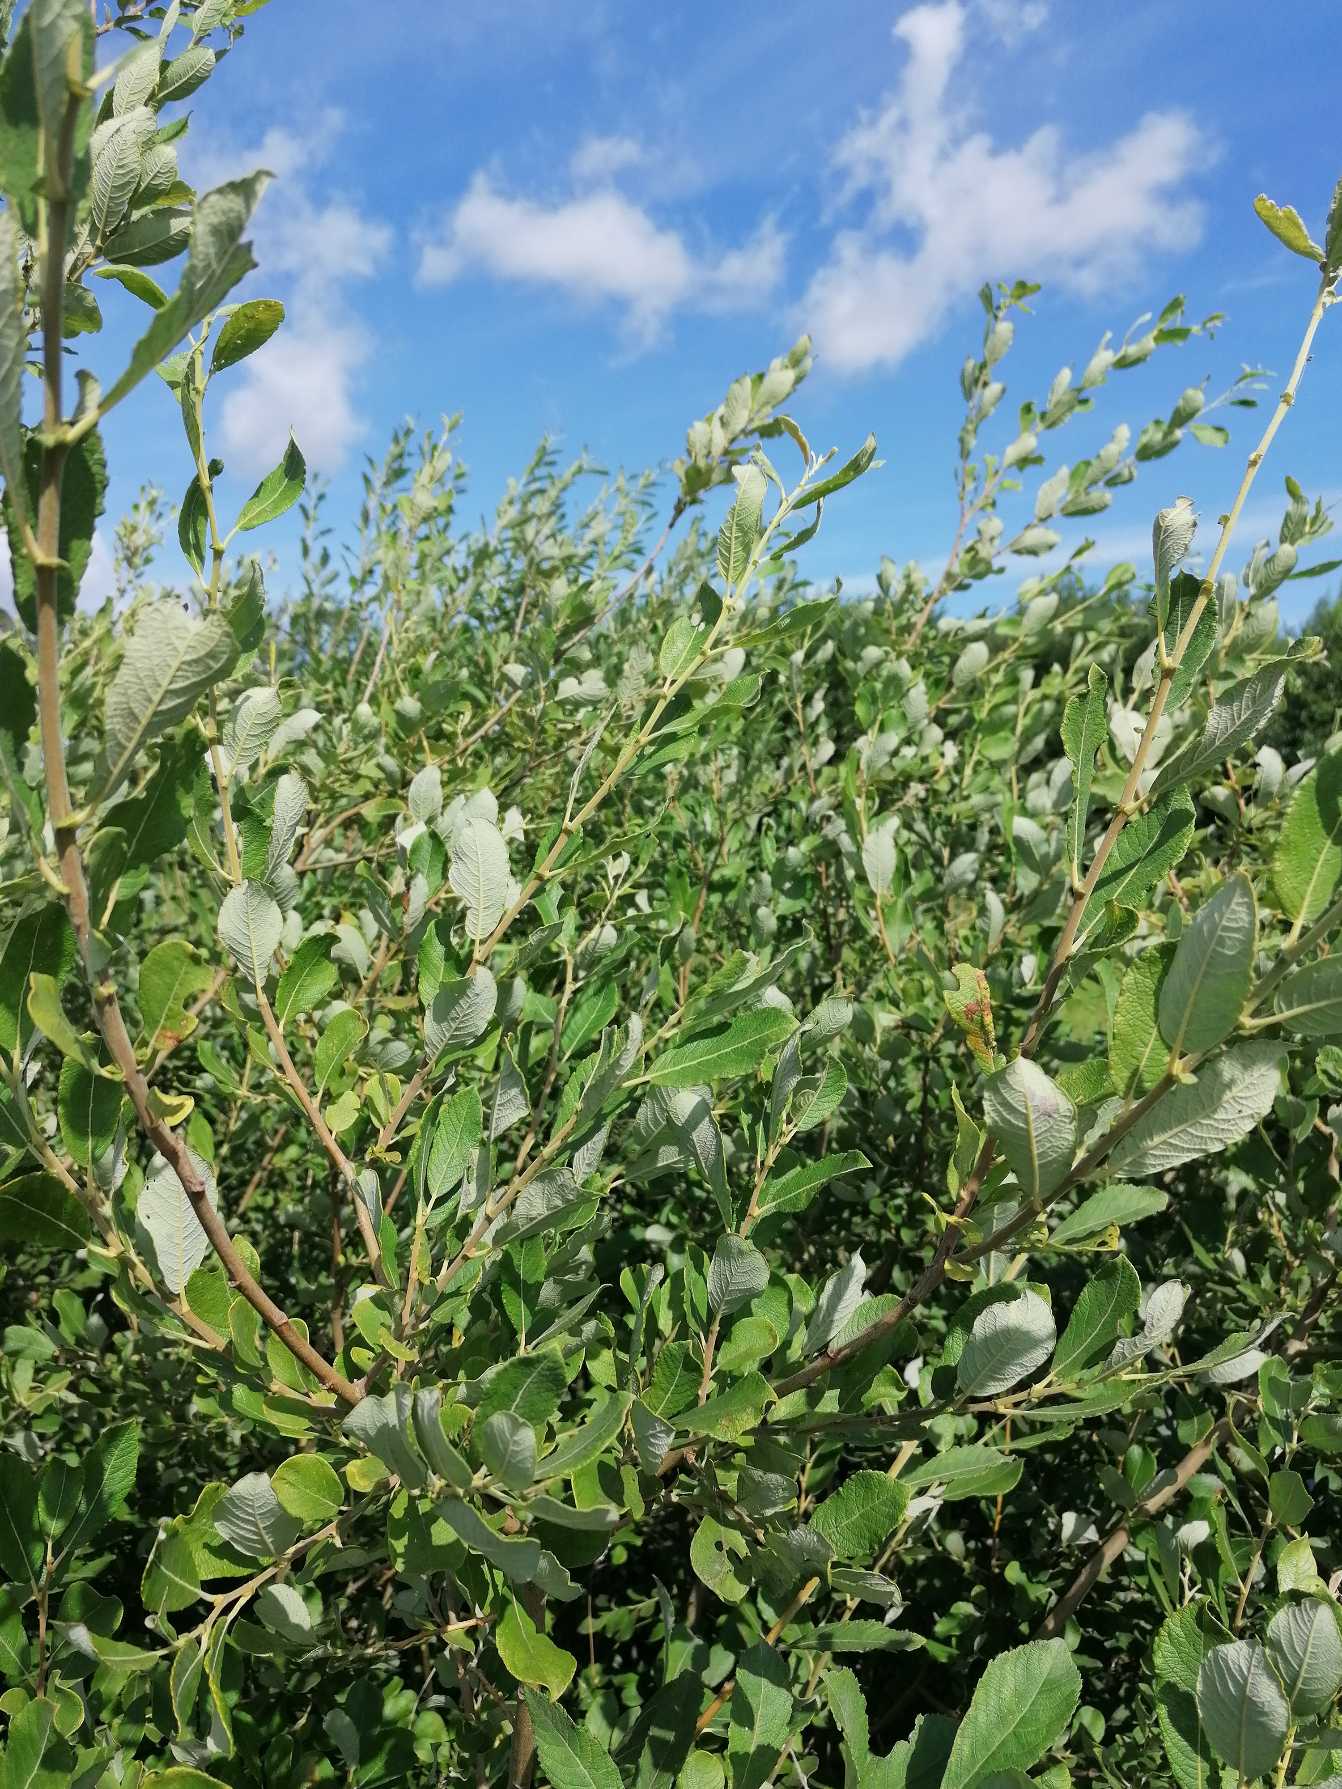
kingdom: Plantae
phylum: Tracheophyta
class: Magnoliopsida
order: Malpighiales
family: Salicaceae
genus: Salix
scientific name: Salix cinerea
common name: Grå-pil
